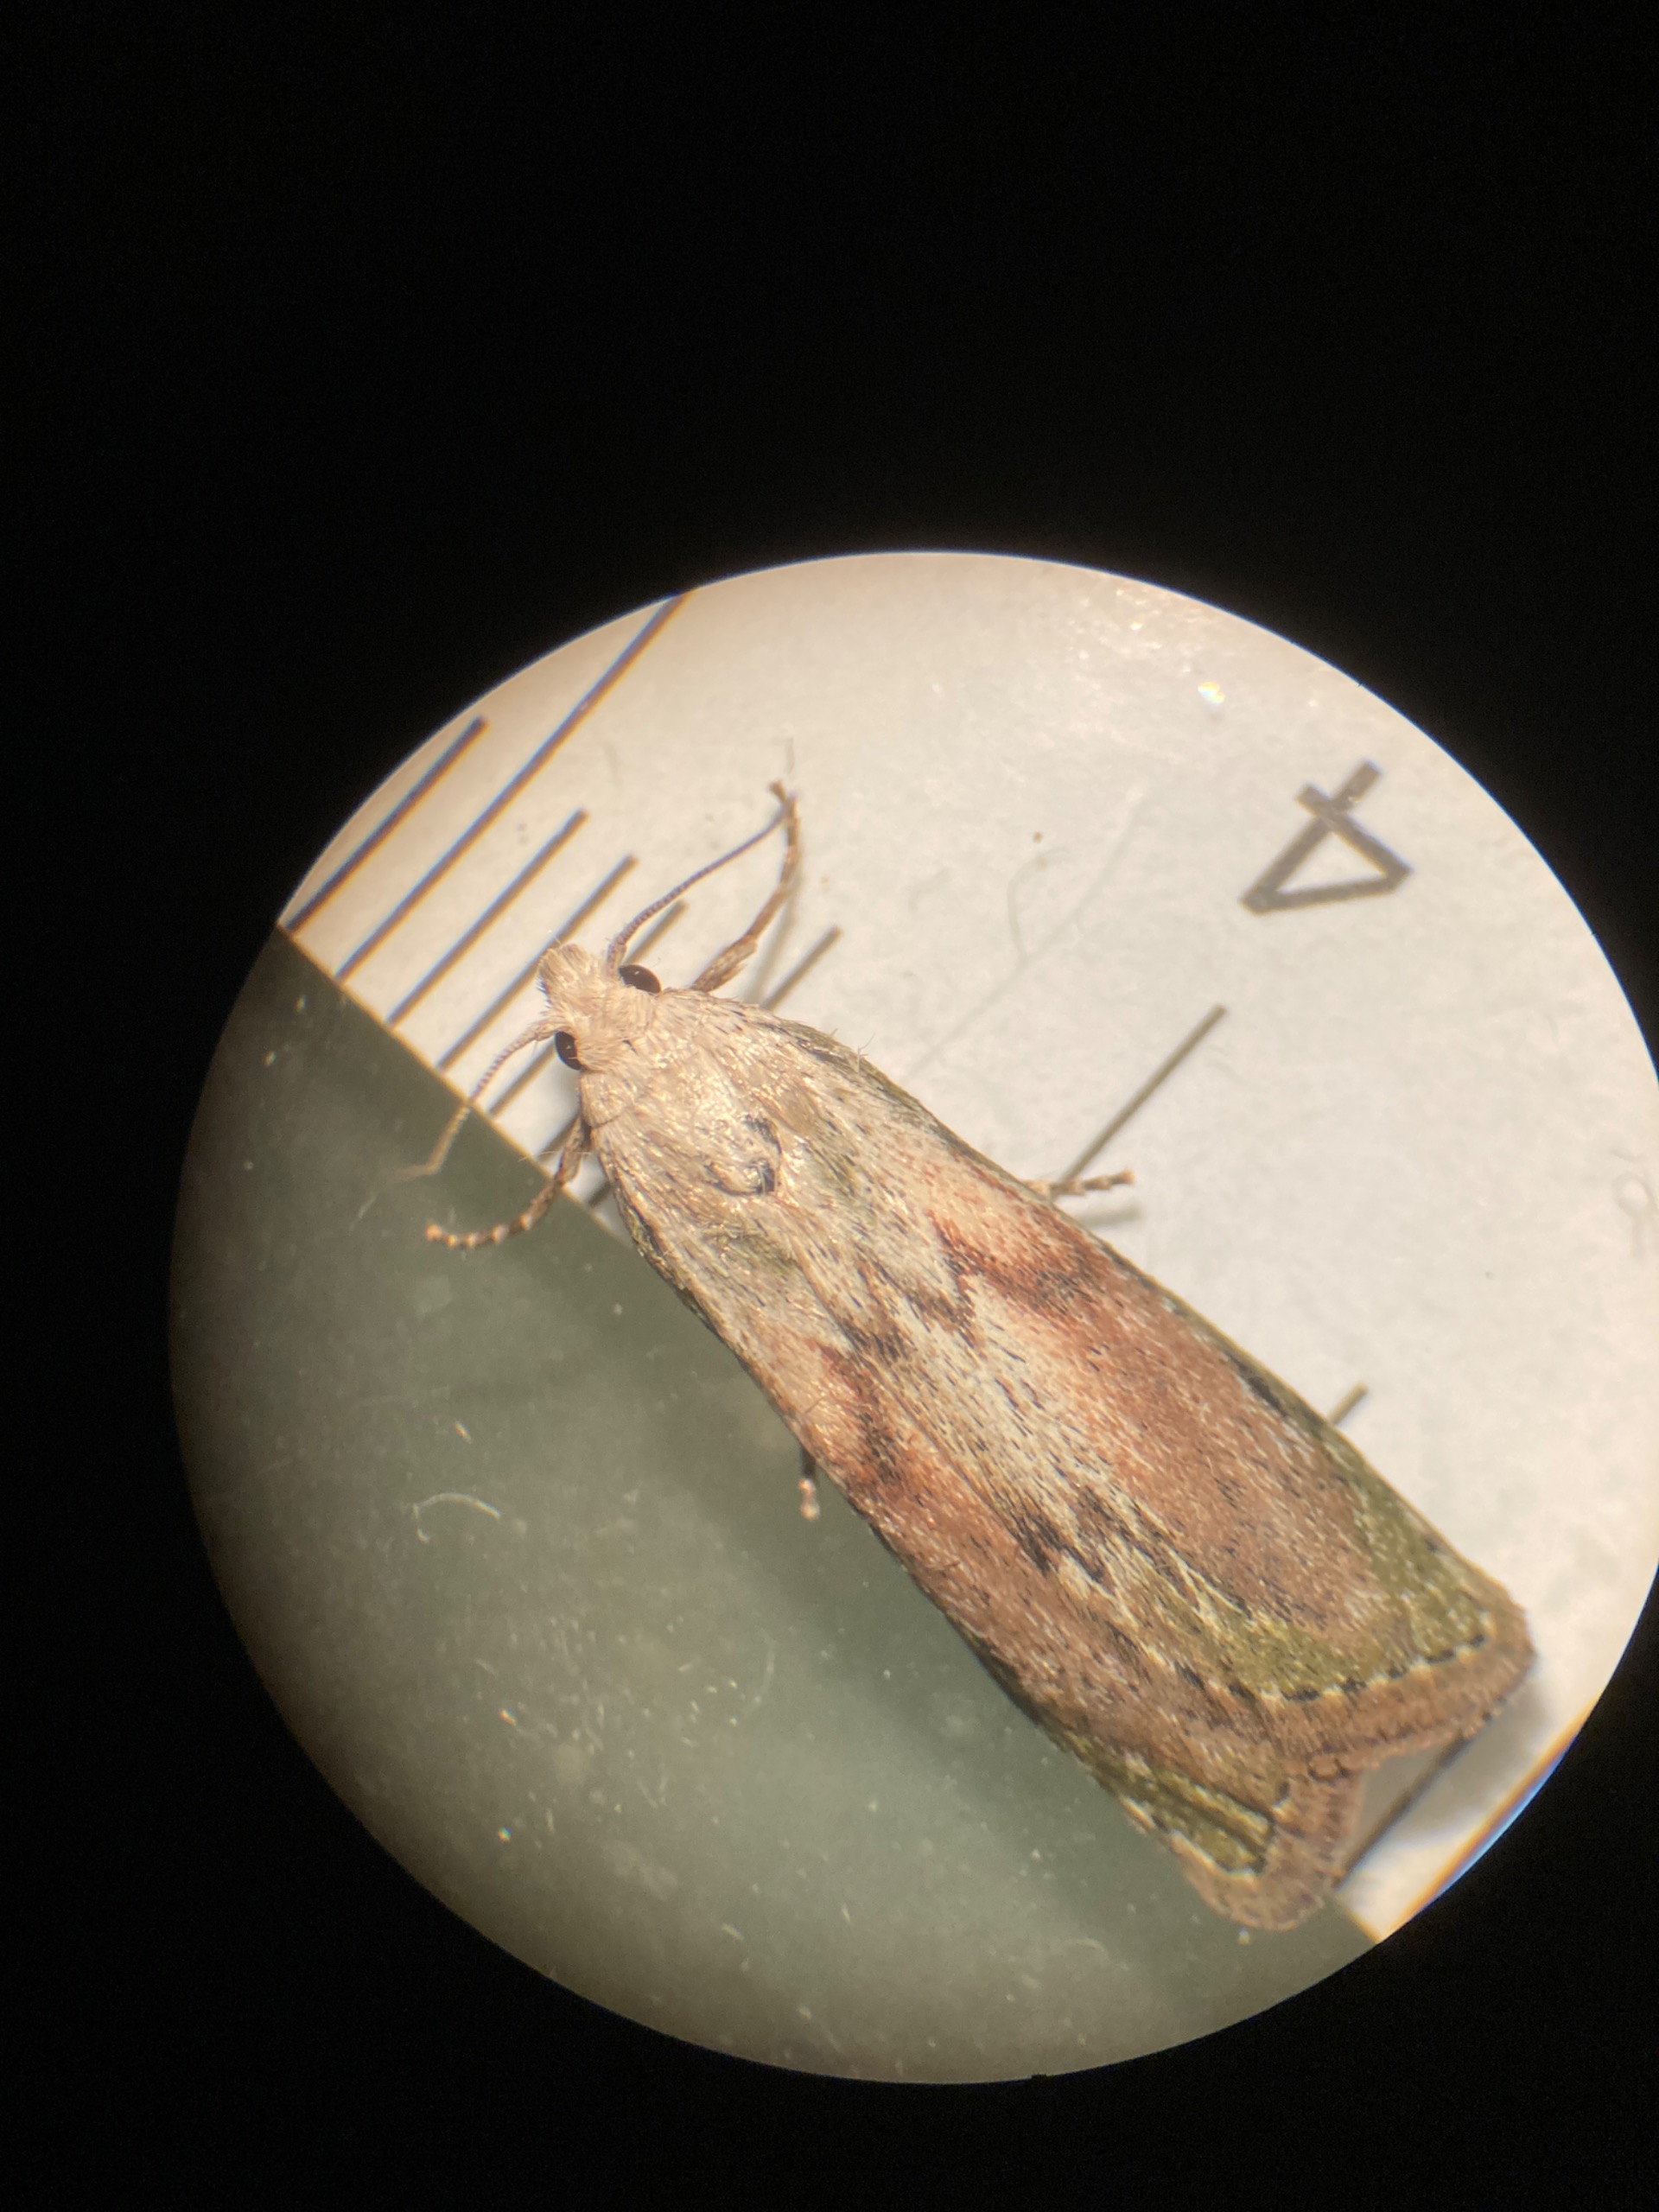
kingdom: Animalia
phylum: Arthropoda
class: Insecta
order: Lepidoptera
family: Pyralidae
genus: Aphomia
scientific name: Aphomia sociella
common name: Humlevoksmøl
